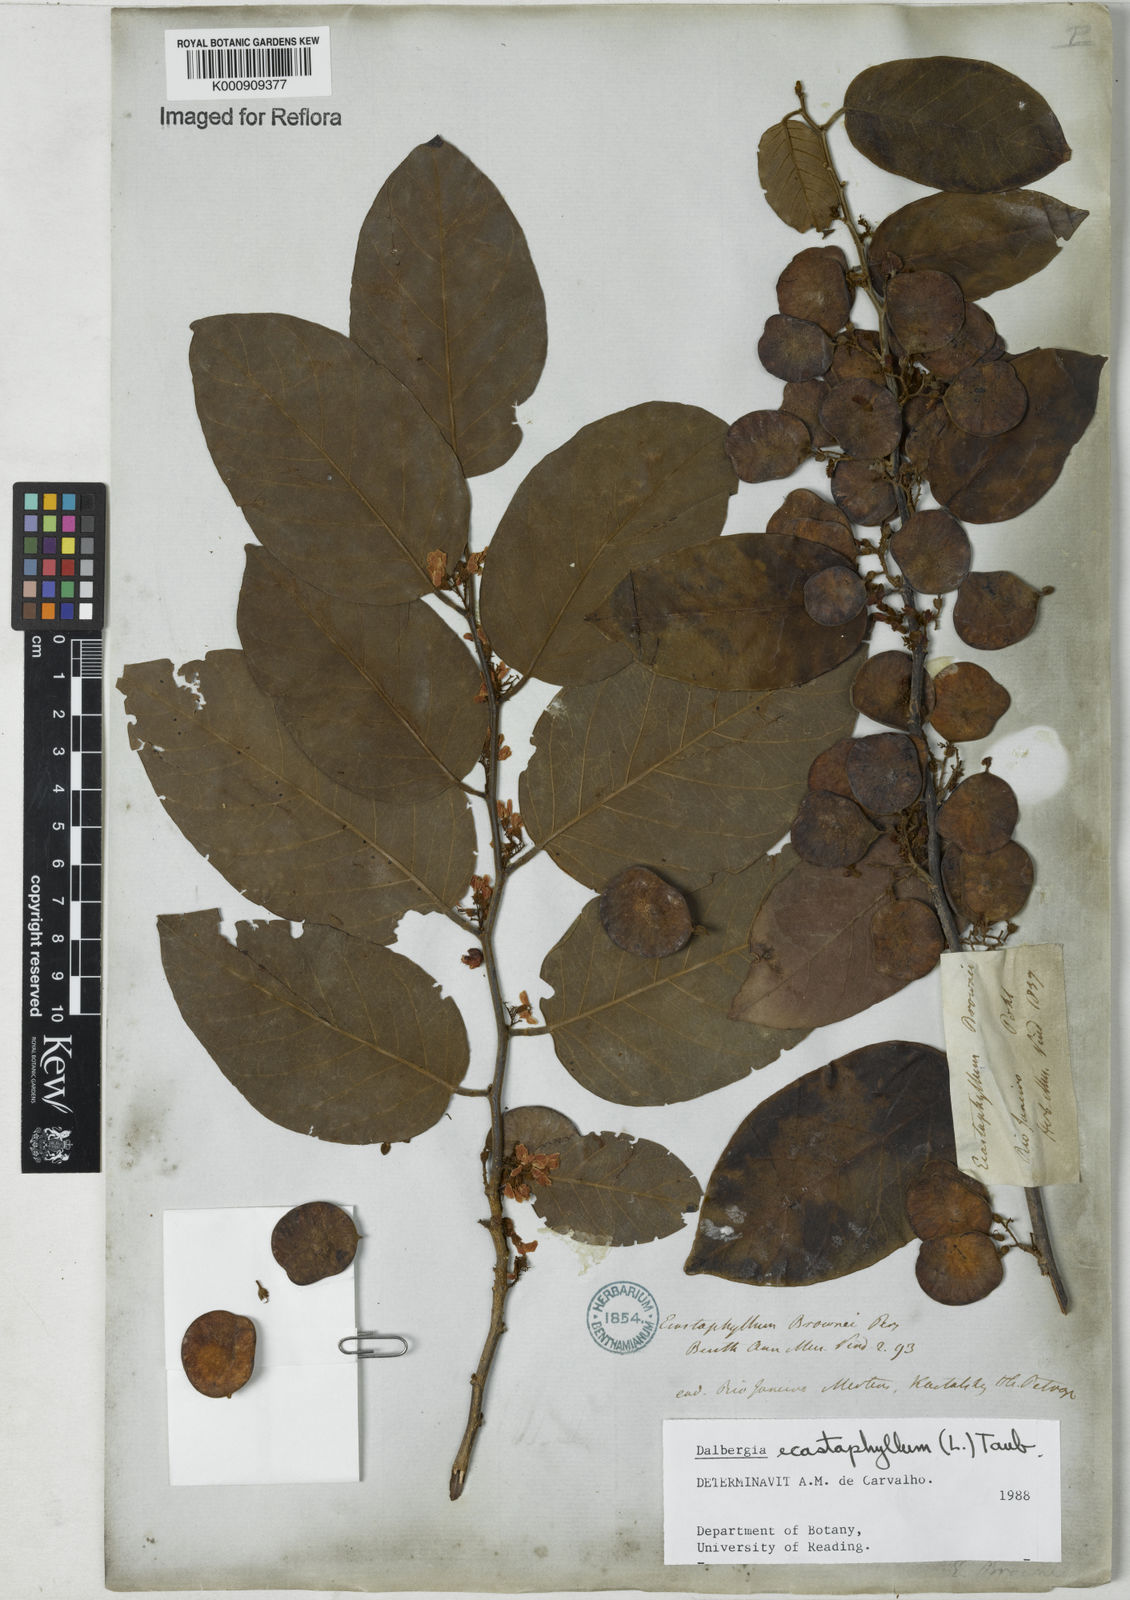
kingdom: Plantae
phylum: Tracheophyta
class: Magnoliopsida
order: Fabales
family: Fabaceae
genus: Dalbergia
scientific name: Dalbergia ecastaphyllum
